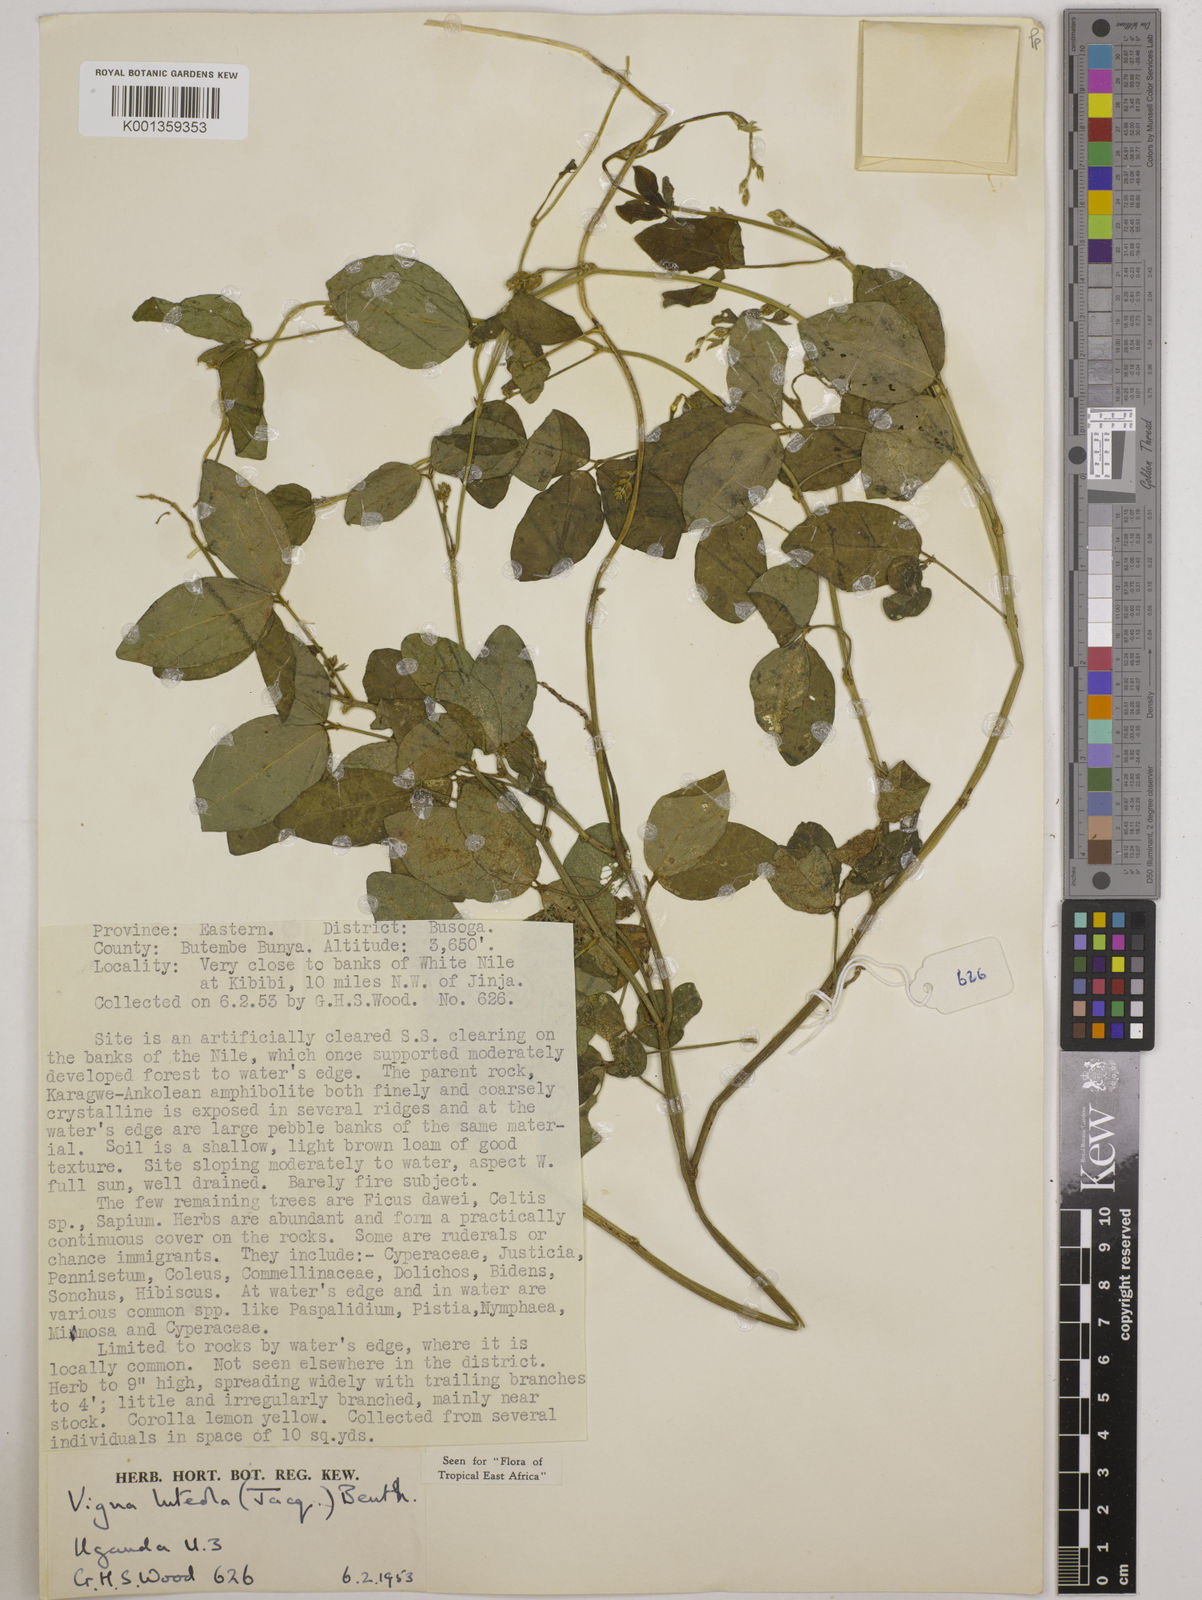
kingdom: Plantae
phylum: Tracheophyta
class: Magnoliopsida
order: Fabales
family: Fabaceae
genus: Vigna
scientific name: Vigna luteola
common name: Hairypod cowpea
